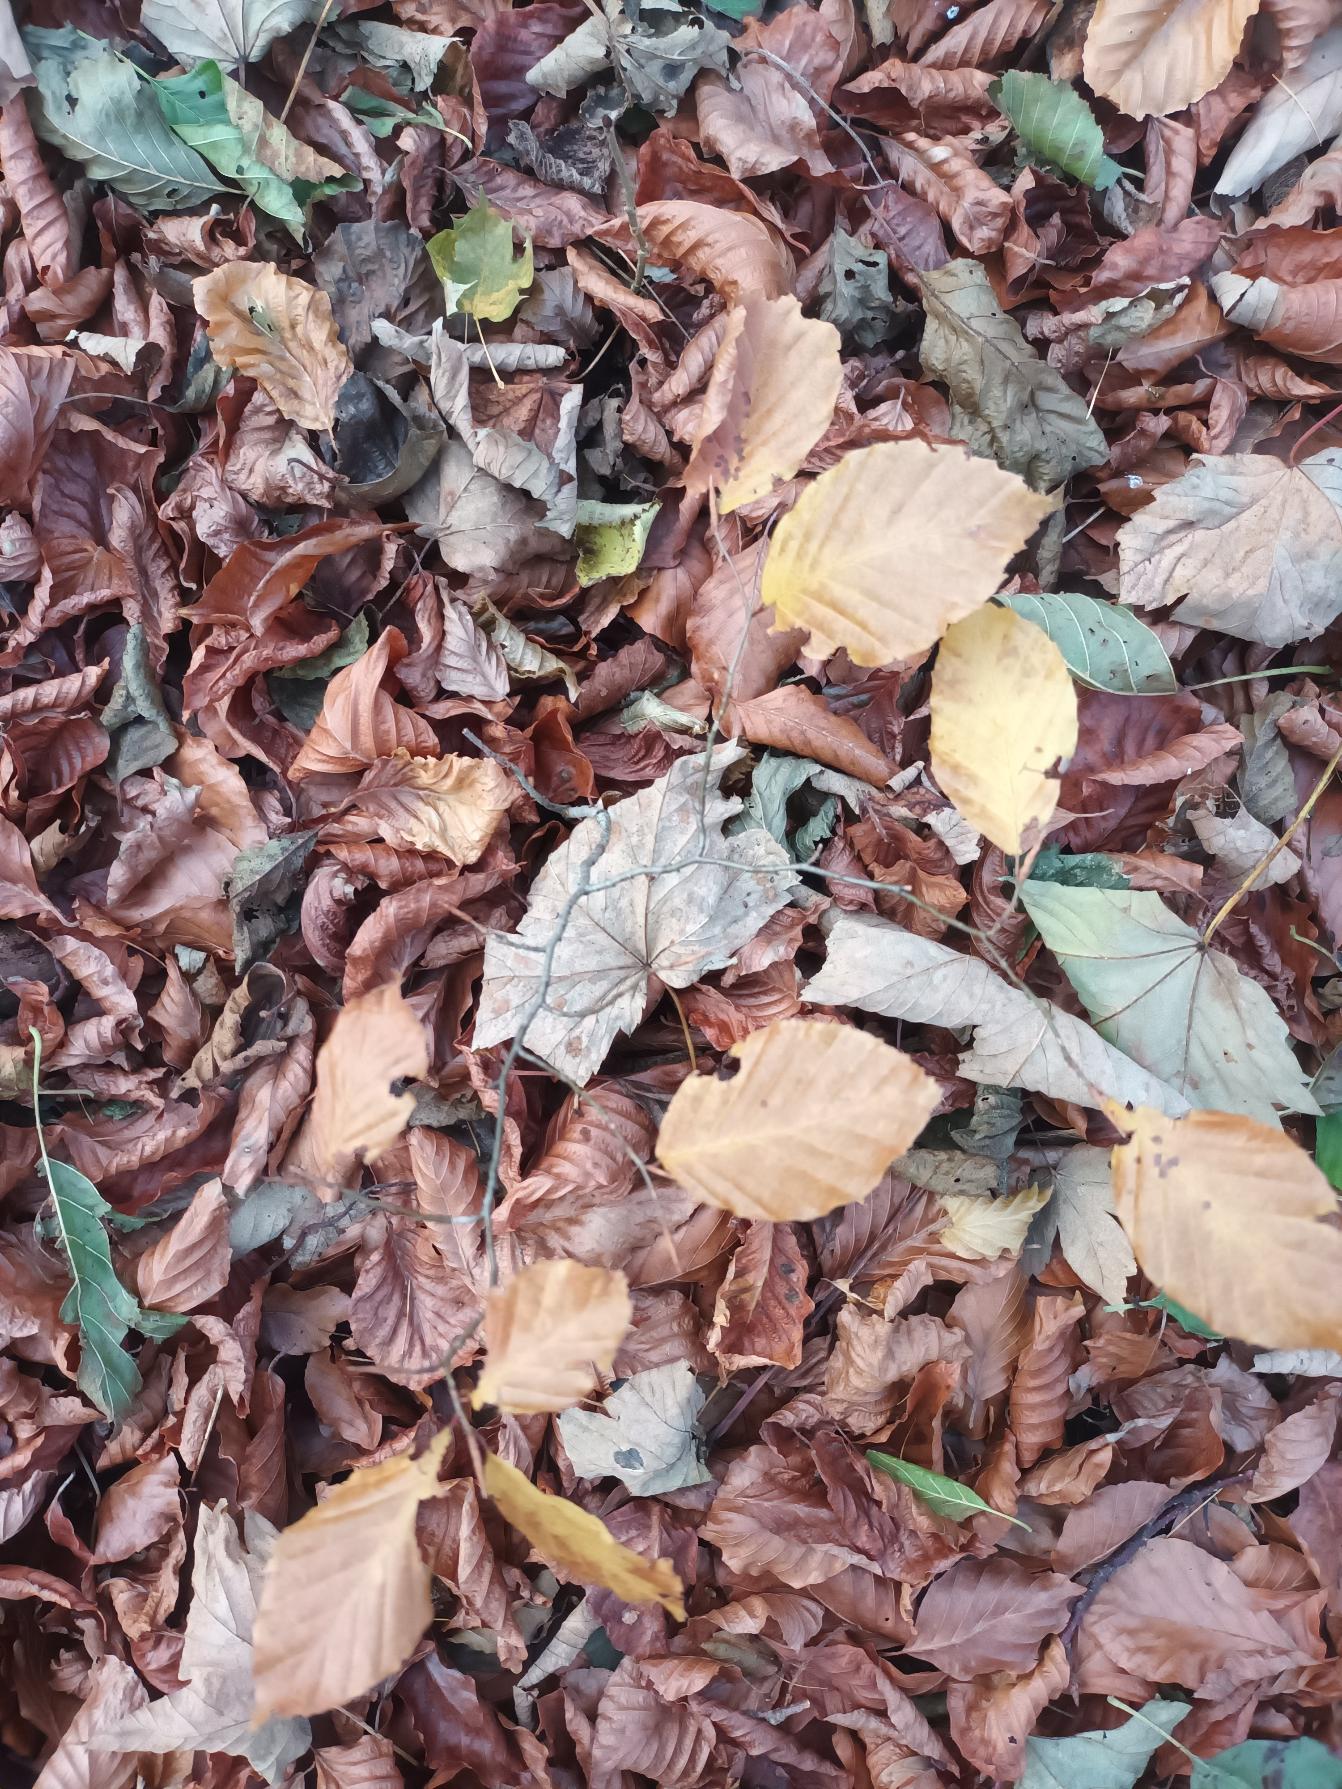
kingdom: Plantae
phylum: Tracheophyta
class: Magnoliopsida
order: Fagales
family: Fagaceae
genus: Fagus
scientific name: Fagus sylvatica
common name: Bøg
